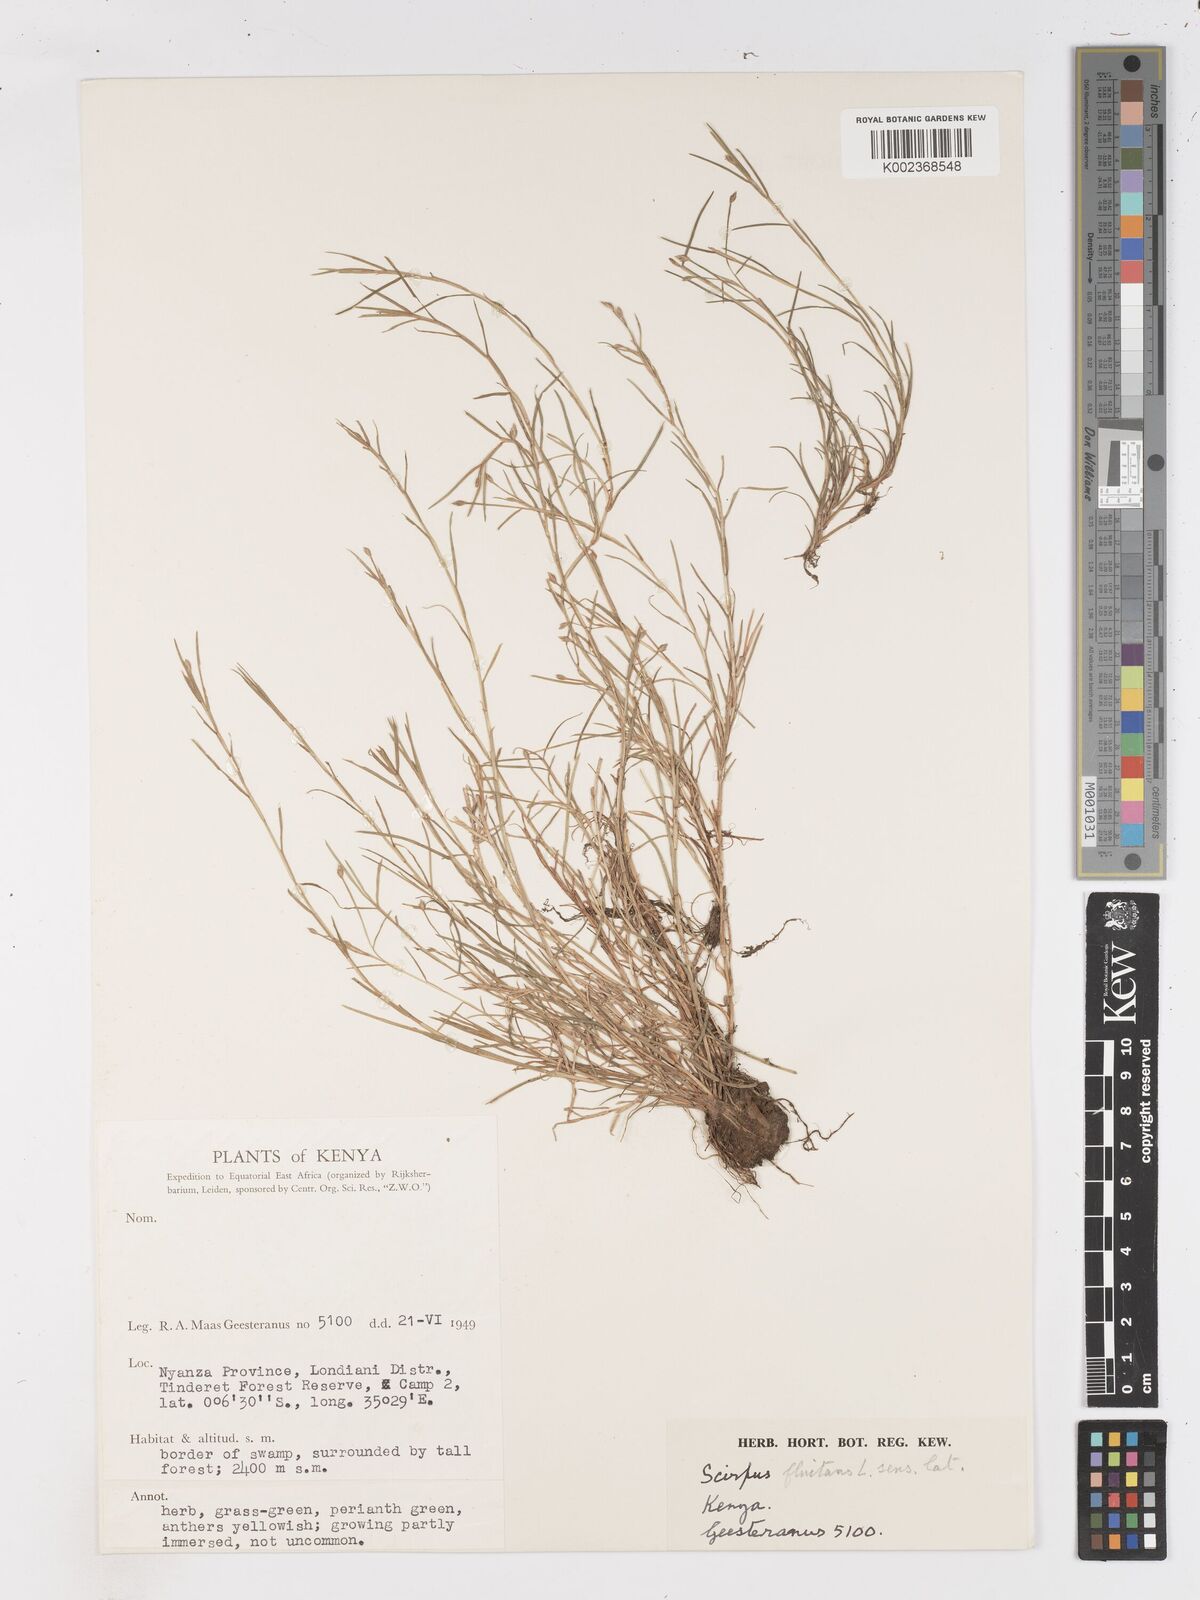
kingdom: Plantae
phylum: Tracheophyta
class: Liliopsida
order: Poales
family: Cyperaceae
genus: Isolepis
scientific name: Isolepis fluitans
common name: Floating club-rush
